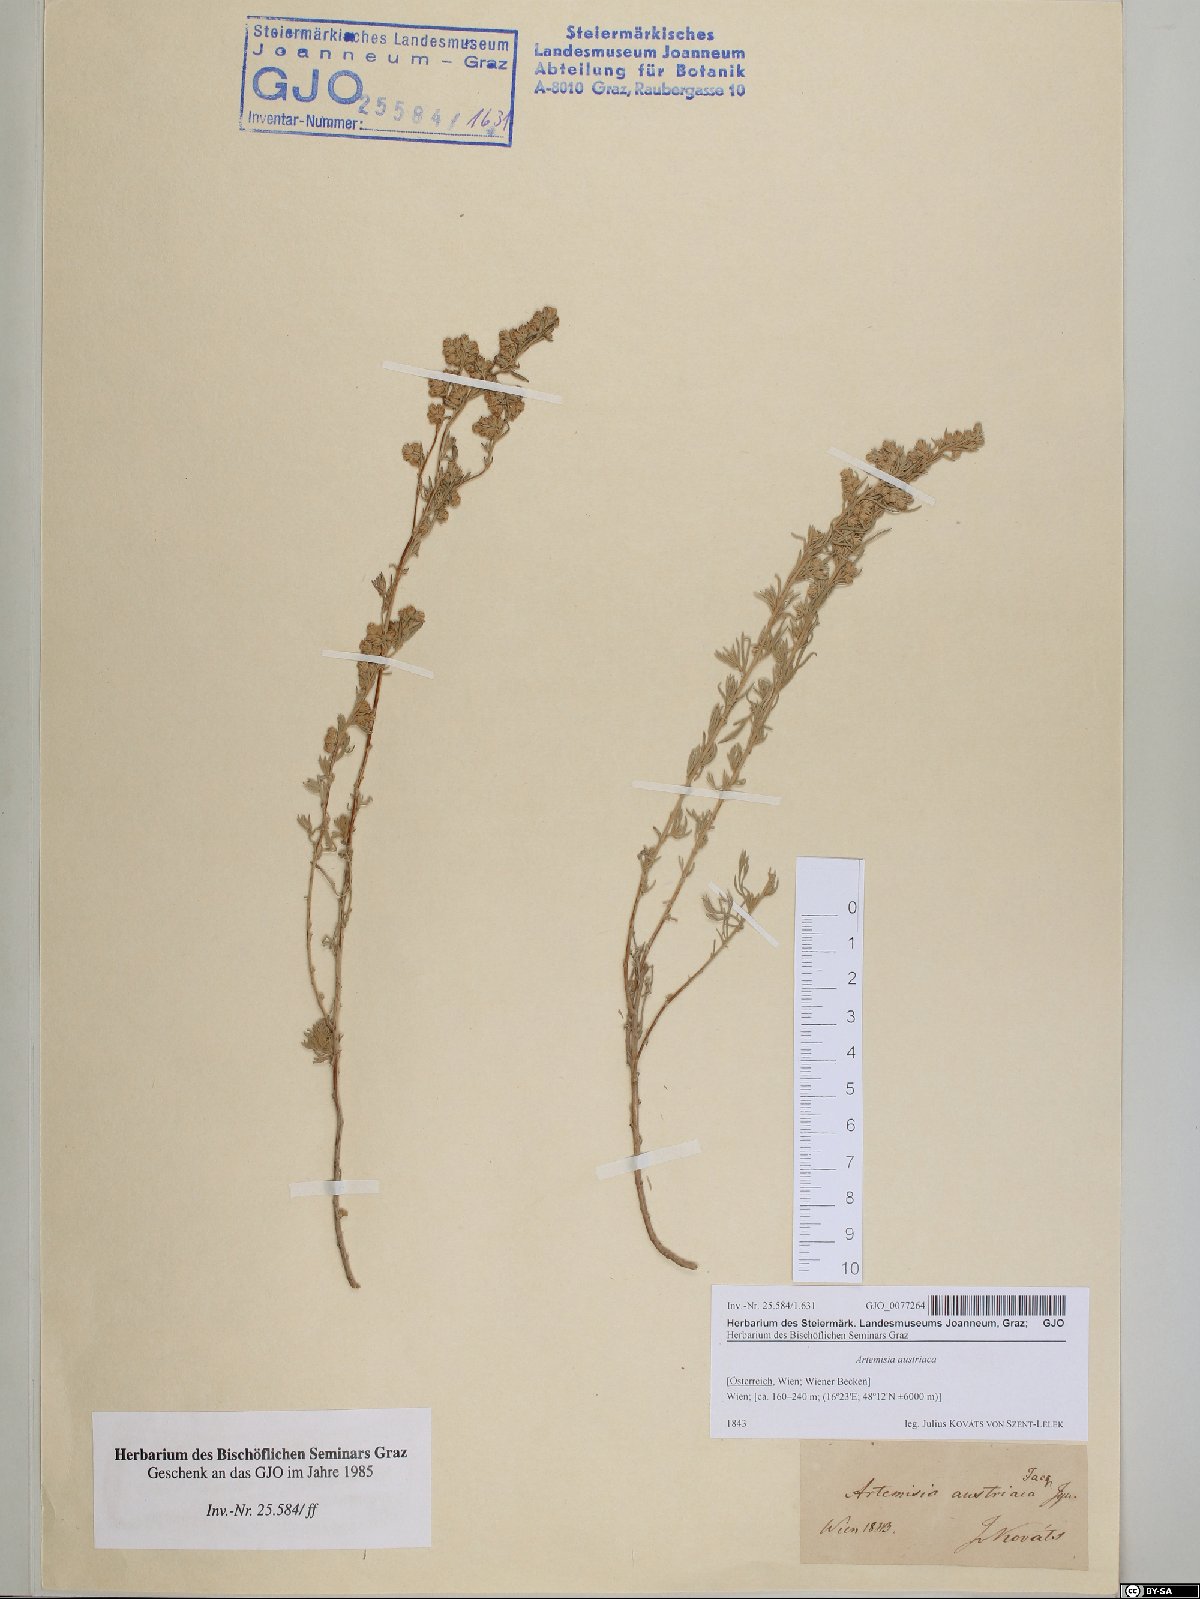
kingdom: Plantae
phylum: Tracheophyta
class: Magnoliopsida
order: Asterales
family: Asteraceae
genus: Artemisia
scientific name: Artemisia austriaca
